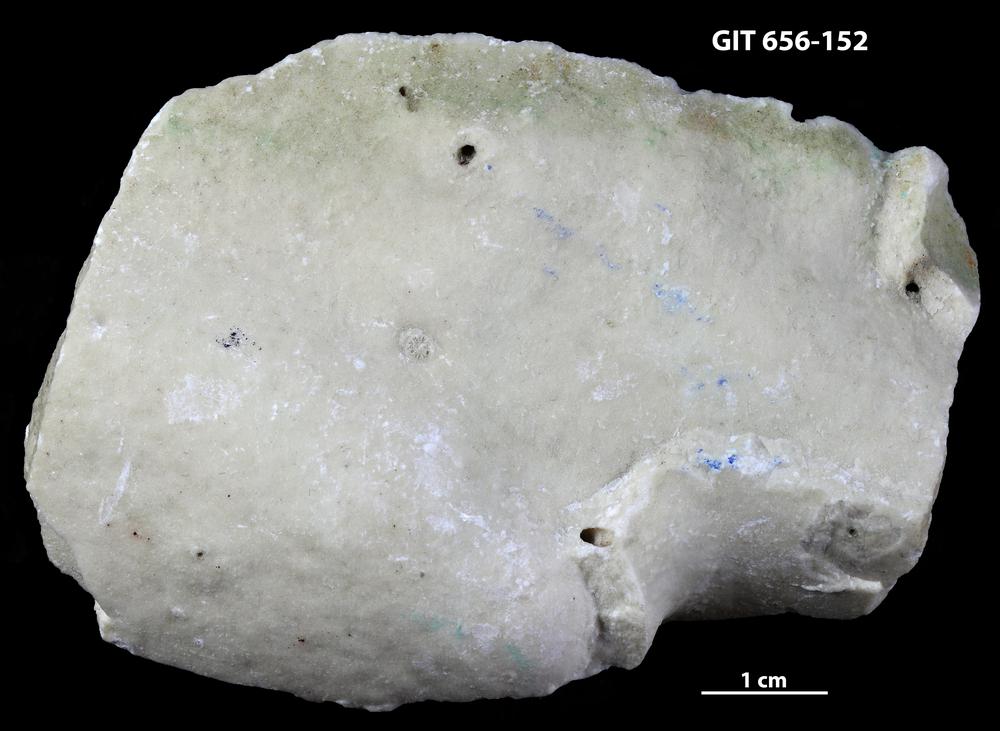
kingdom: Animalia
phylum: Porifera
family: Stromatoporidae
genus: Stromatopora
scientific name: Stromatopora
